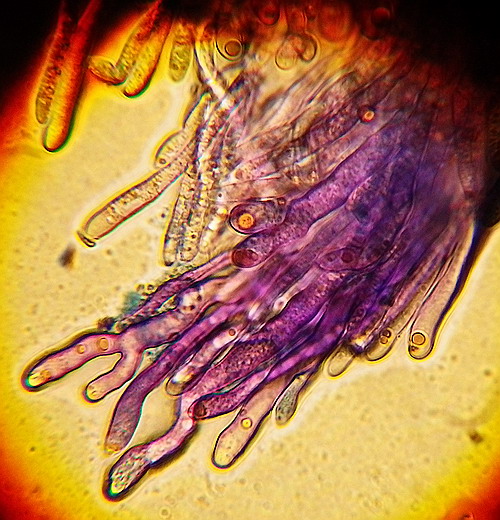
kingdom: Fungi
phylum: Basidiomycota
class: Agaricomycetes
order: Russulales
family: Stereaceae
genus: Aleurodiscus
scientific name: Aleurodiscus amorphus
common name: orange skiveskorpe
